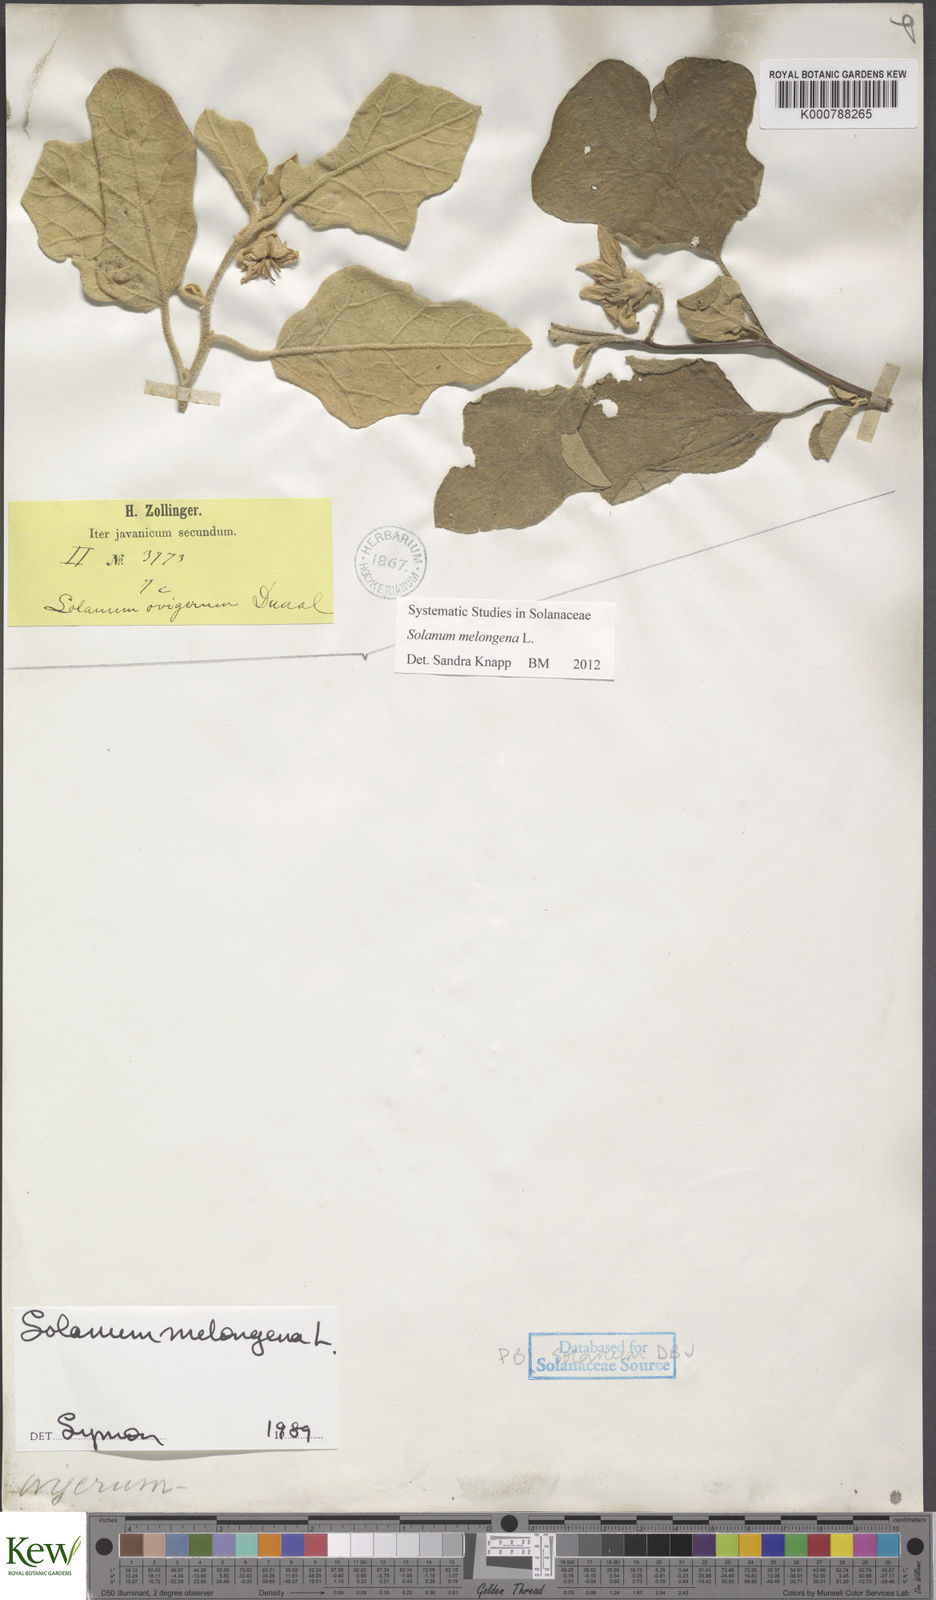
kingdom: Plantae
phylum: Tracheophyta
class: Magnoliopsida
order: Solanales
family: Solanaceae
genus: Solanum
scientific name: Solanum melongena
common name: Eggplant
